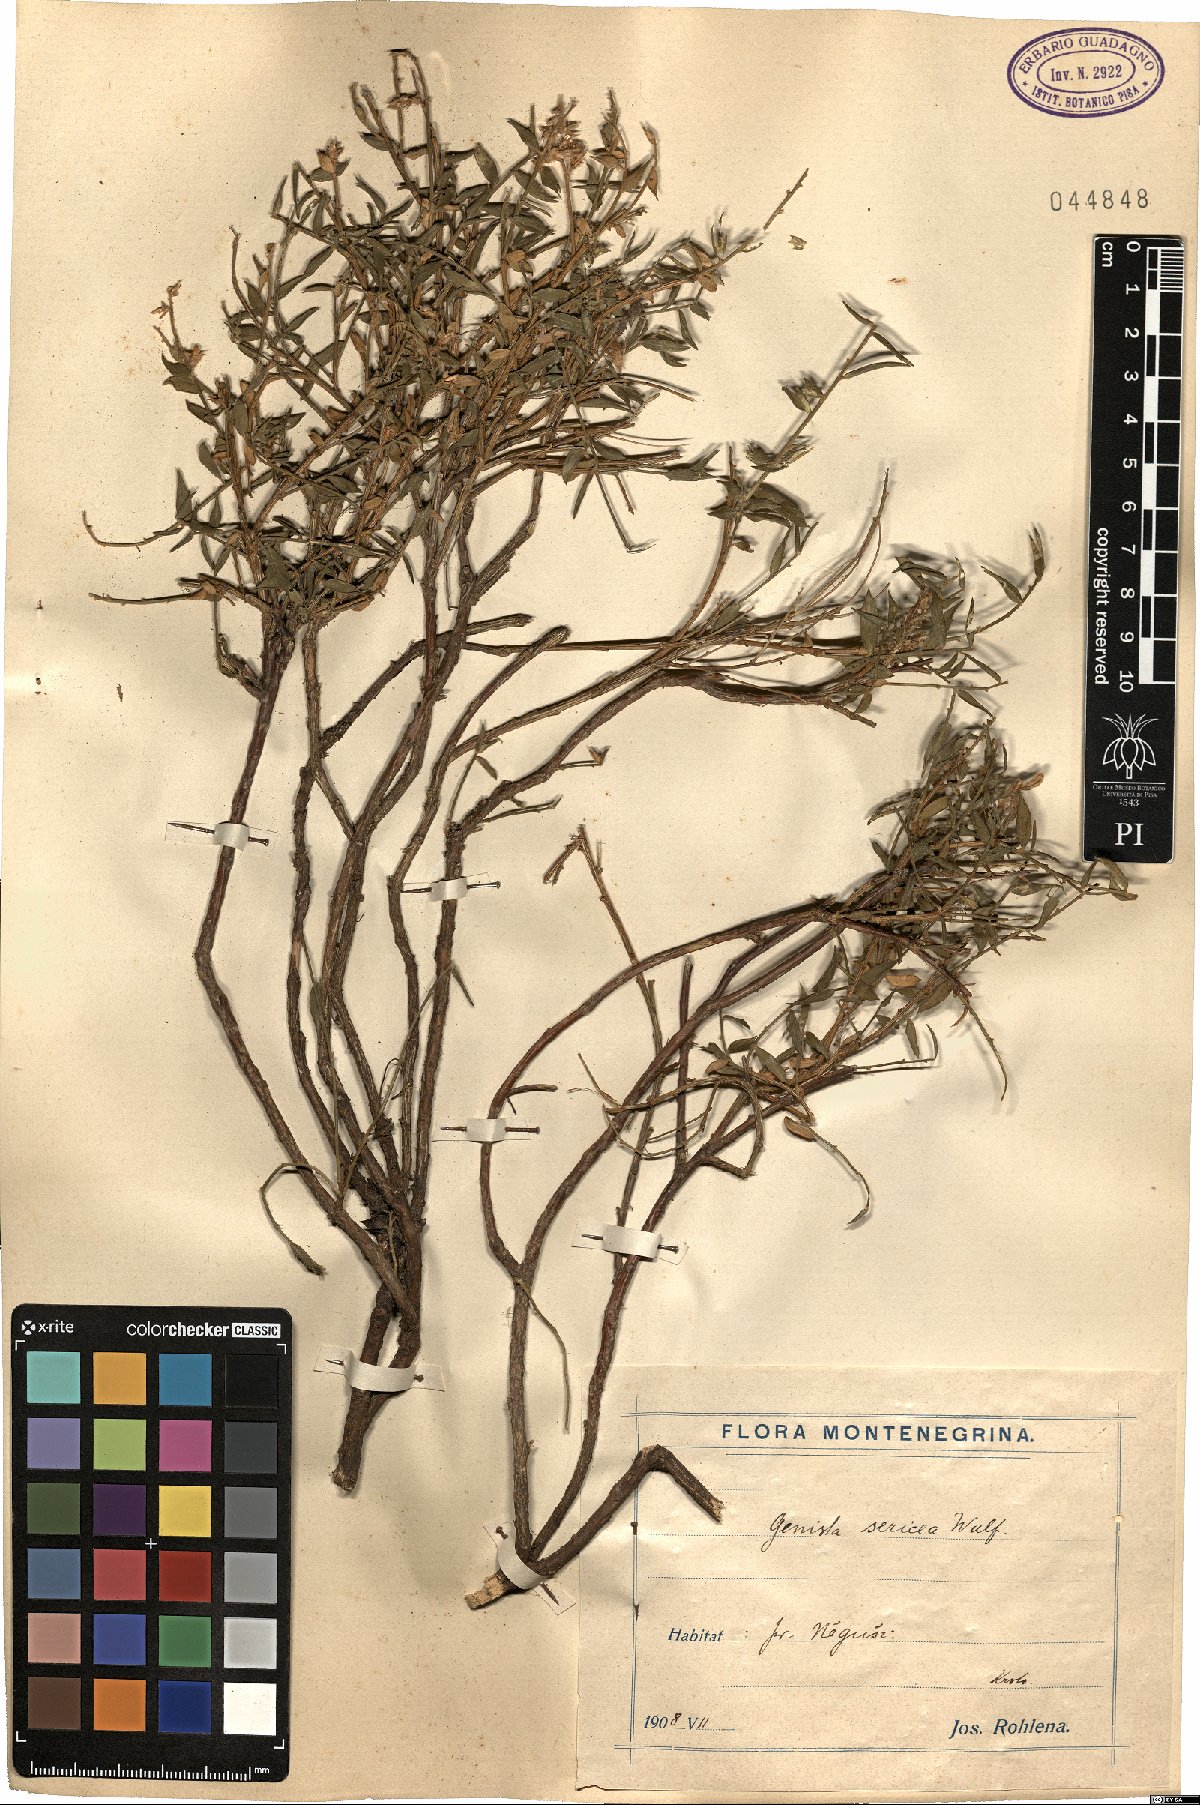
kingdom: Plantae
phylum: Tracheophyta
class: Magnoliopsida
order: Fabales
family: Fabaceae
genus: Genista
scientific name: Genista sericea
